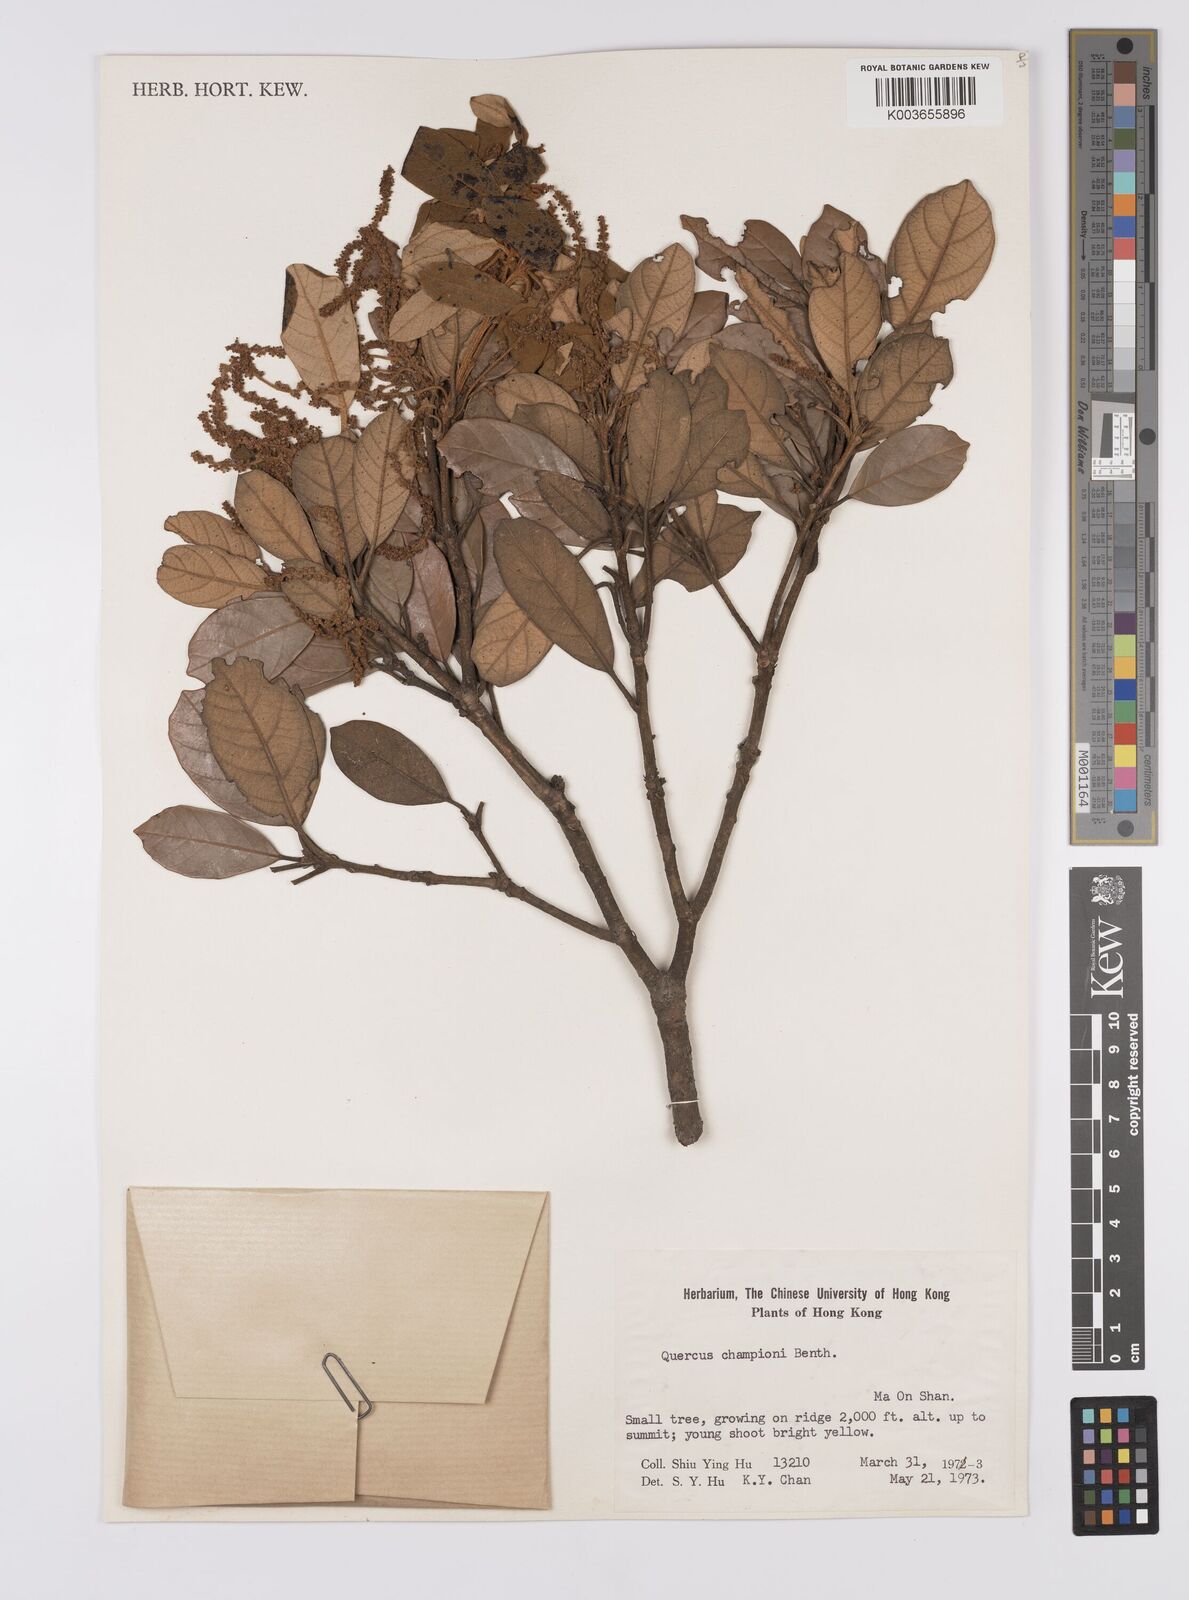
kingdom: Plantae
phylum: Tracheophyta
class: Magnoliopsida
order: Fagales
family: Fagaceae
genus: Quercus
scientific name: Quercus championii
